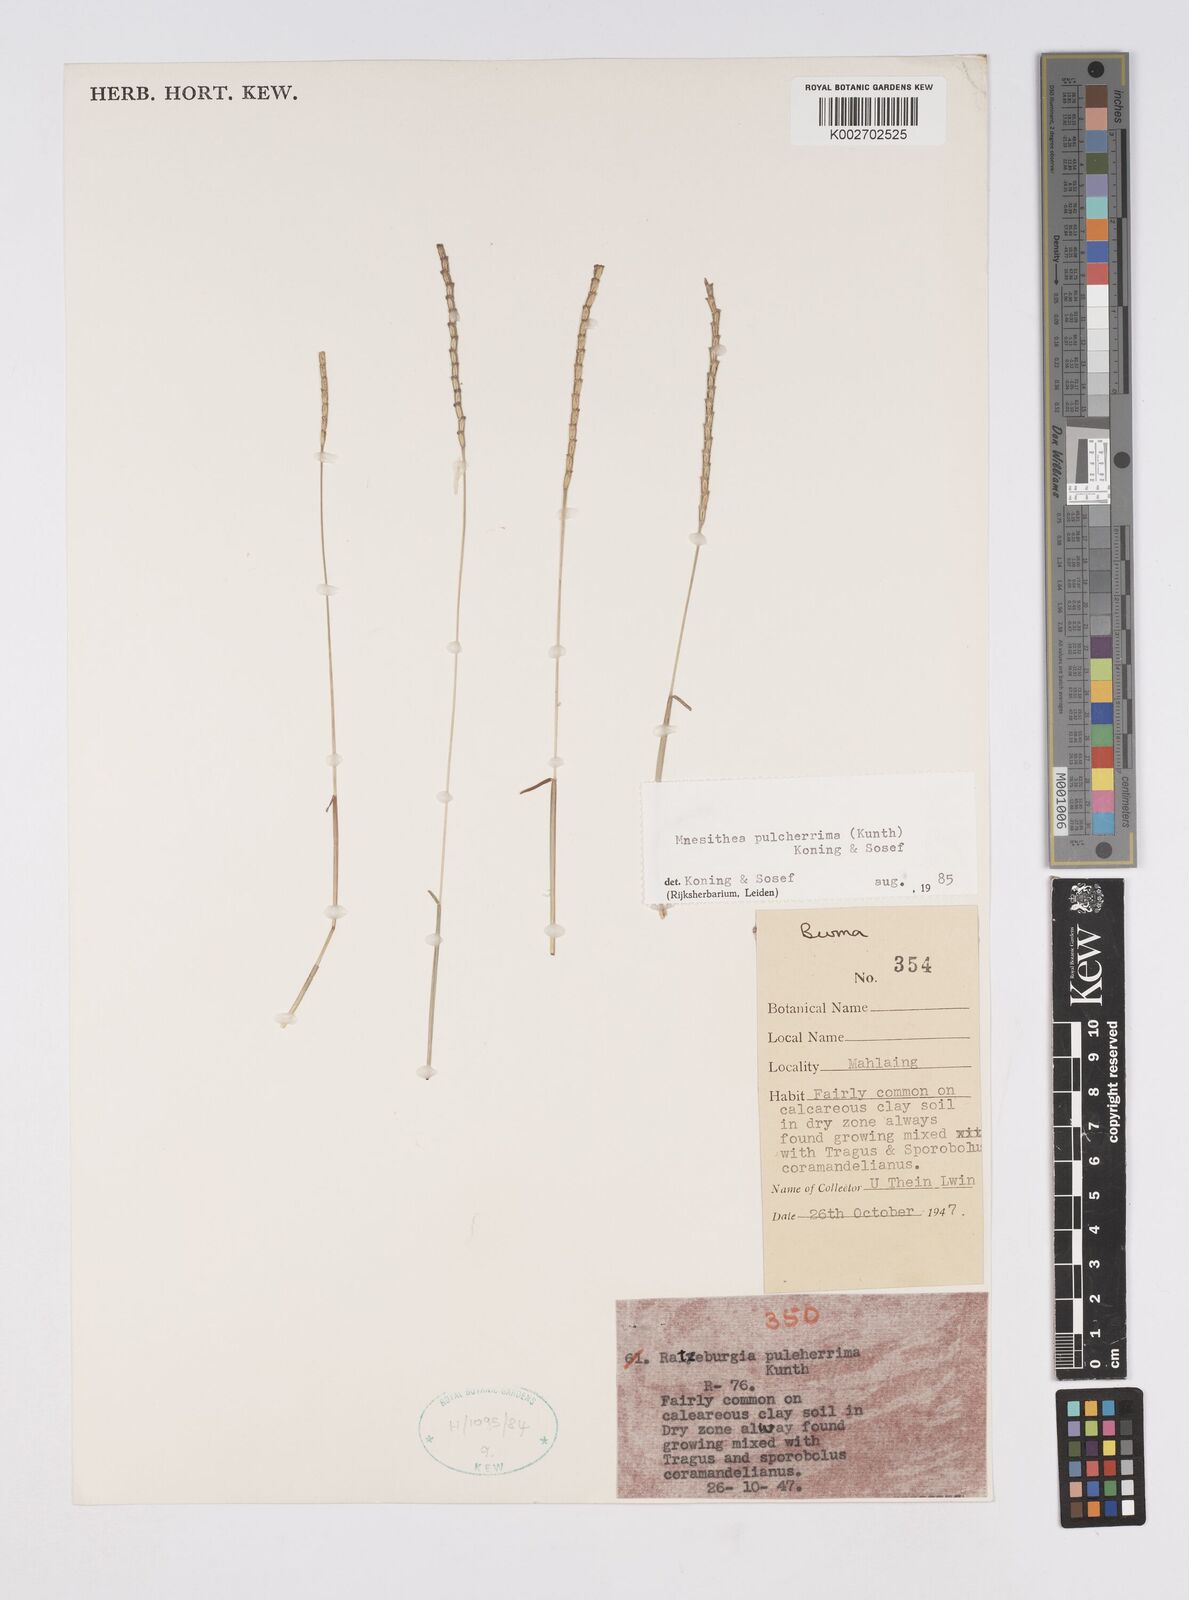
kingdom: Plantae
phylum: Tracheophyta
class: Liliopsida
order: Poales
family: Poaceae
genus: Ratzeburgia
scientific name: Ratzeburgia pulcherrima
